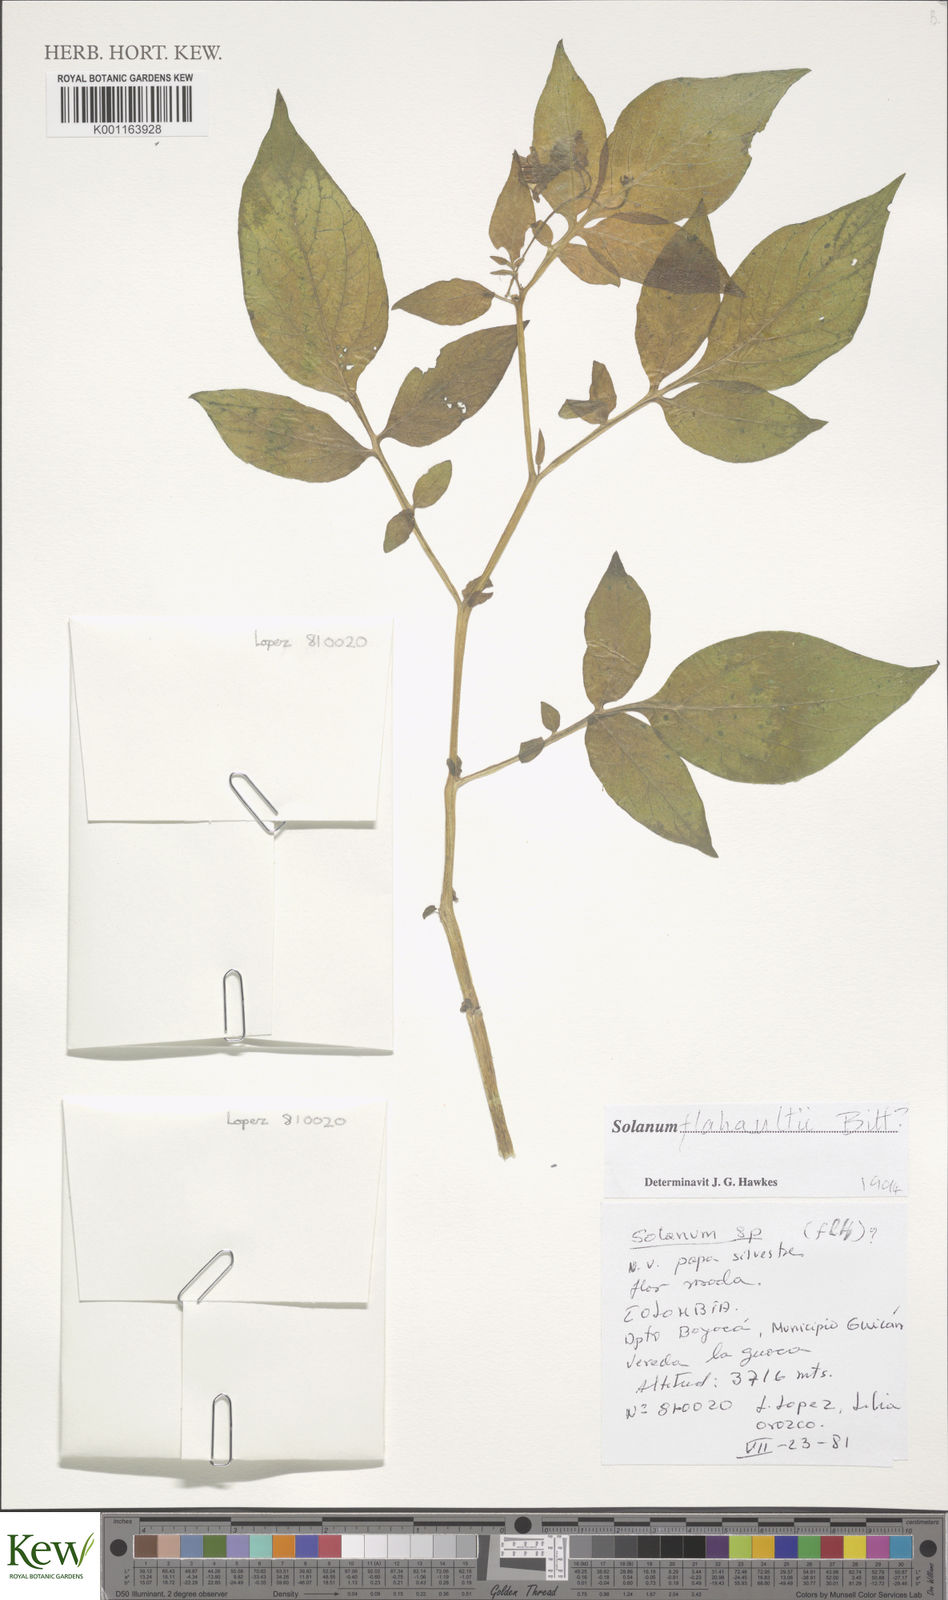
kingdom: Plantae
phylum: Tracheophyta
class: Magnoliopsida
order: Solanales
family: Solanaceae
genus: Solanum
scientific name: Solanum flahaultii
